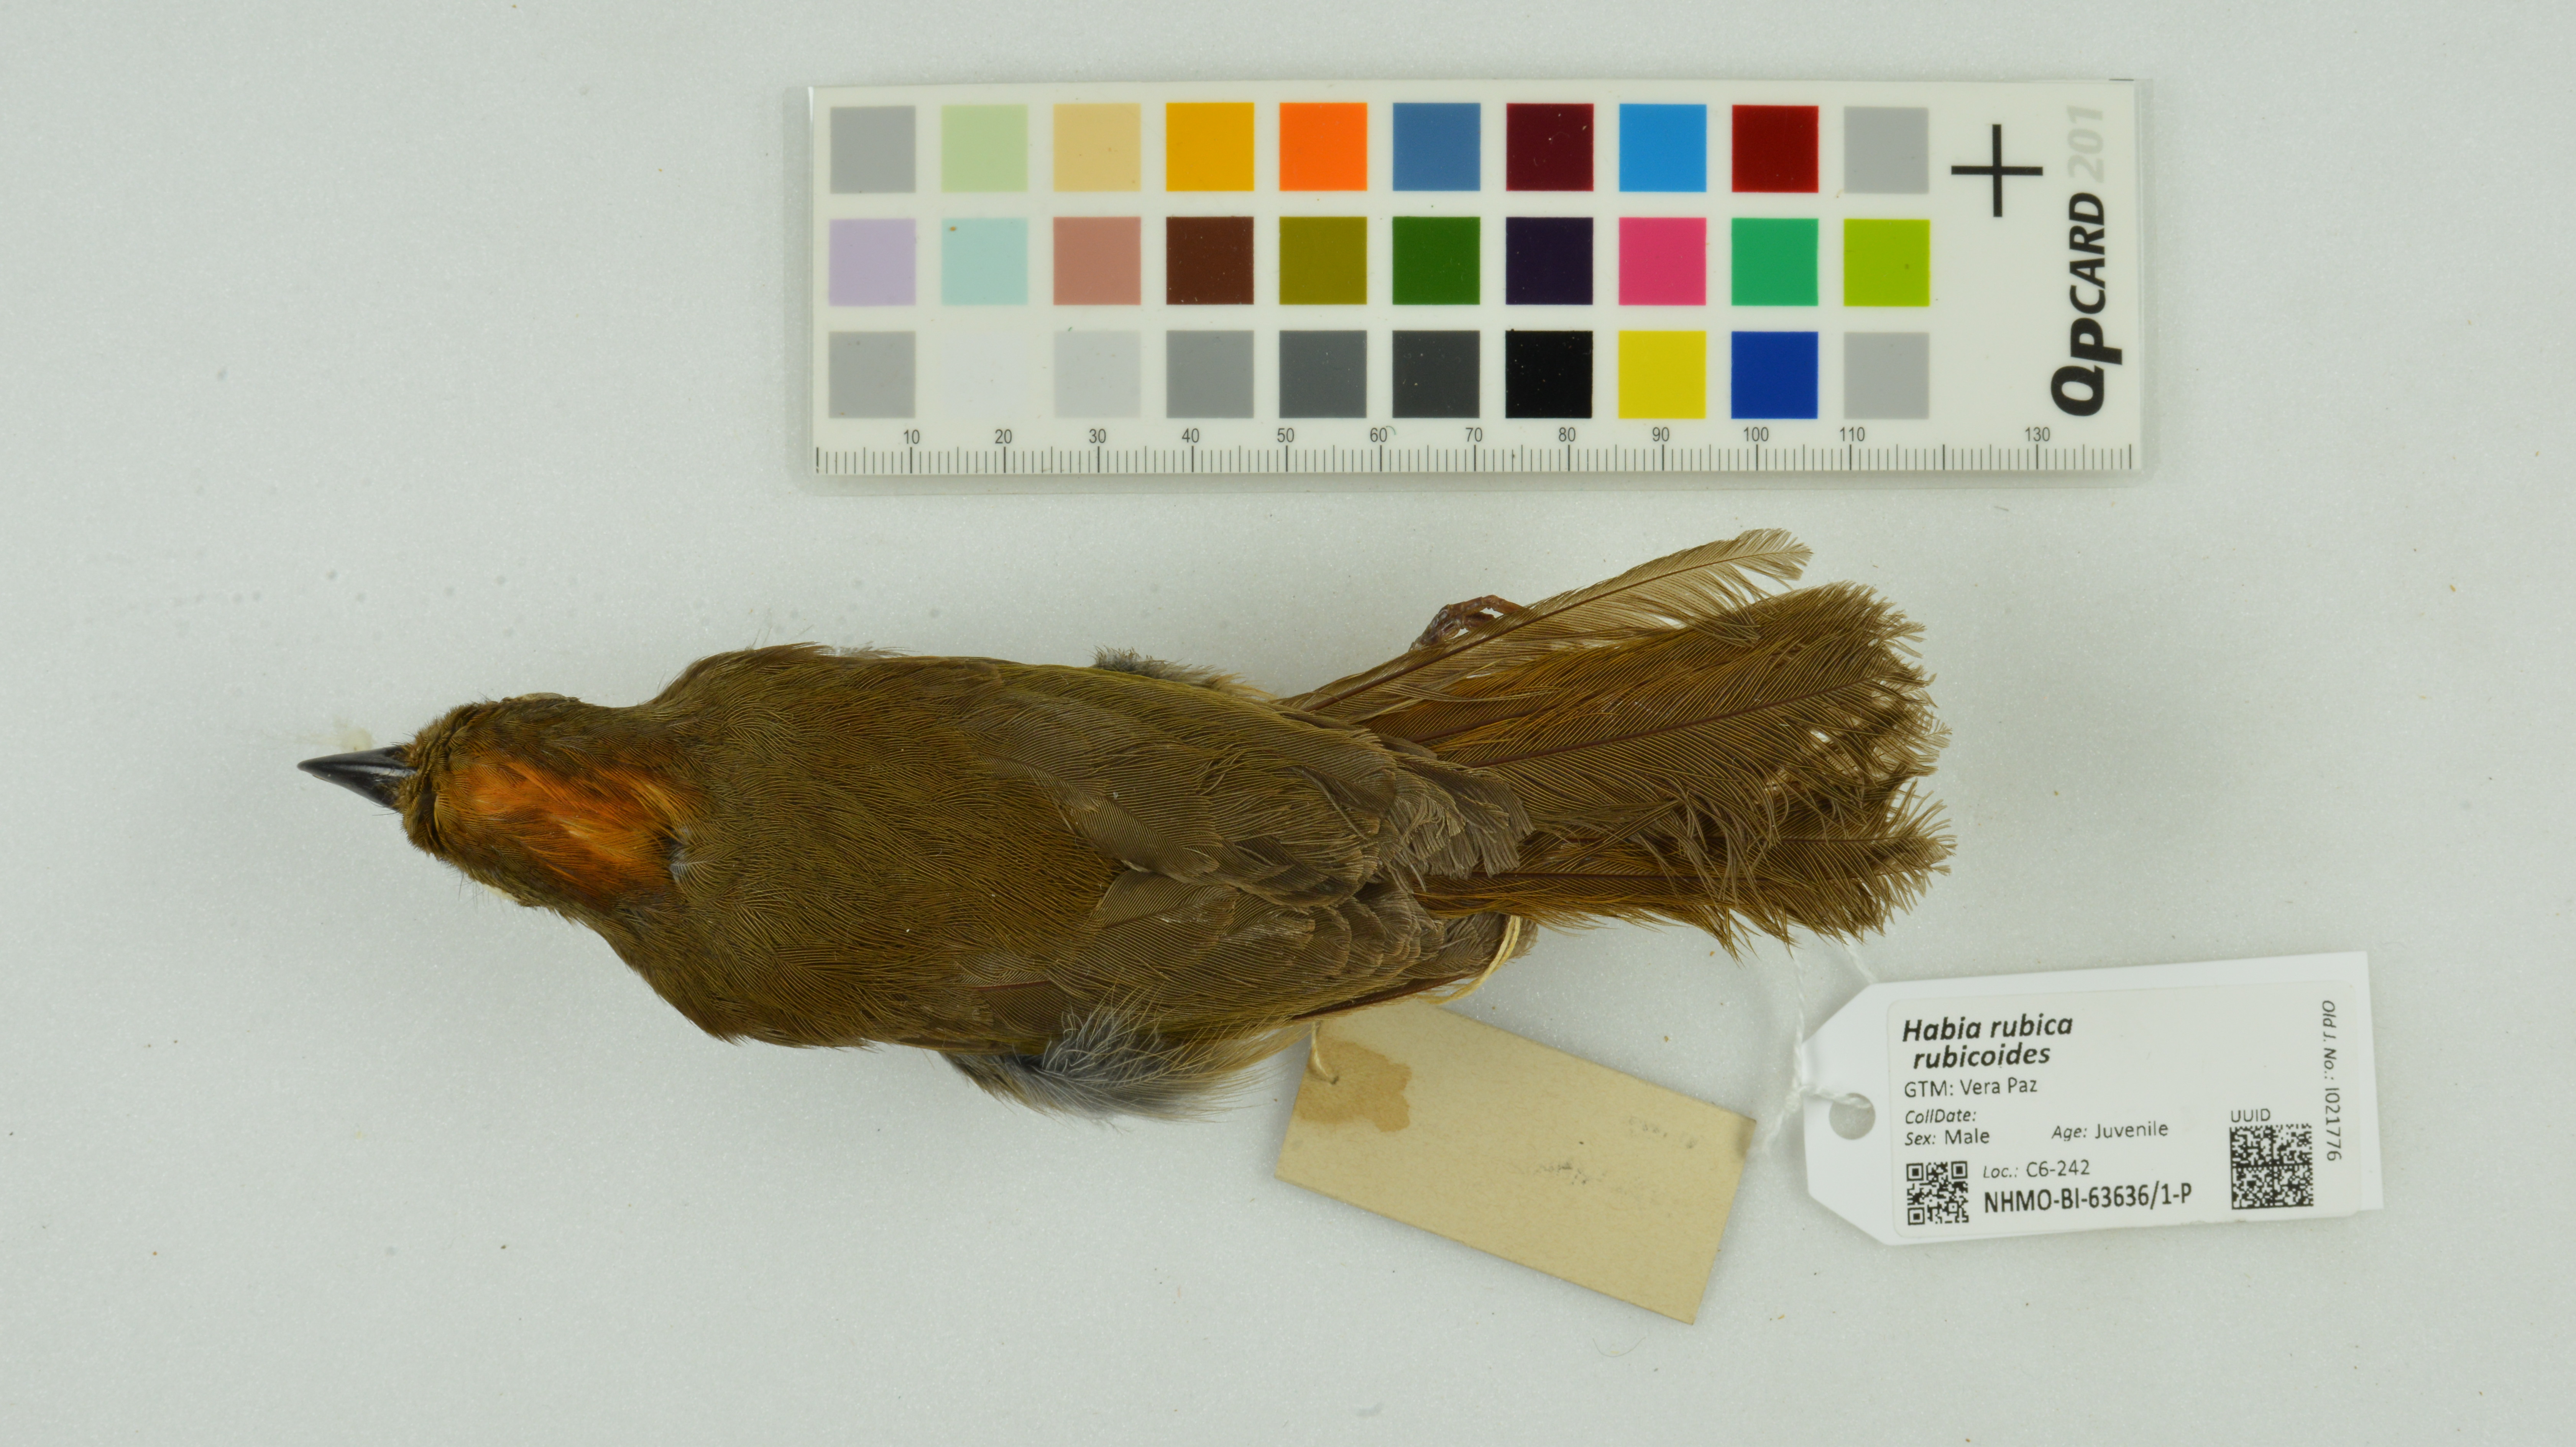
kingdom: Animalia
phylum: Chordata
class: Aves
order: Passeriformes
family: Cardinalidae
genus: Habia
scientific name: Habia rubica
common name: Red-crowned ant-tanager
